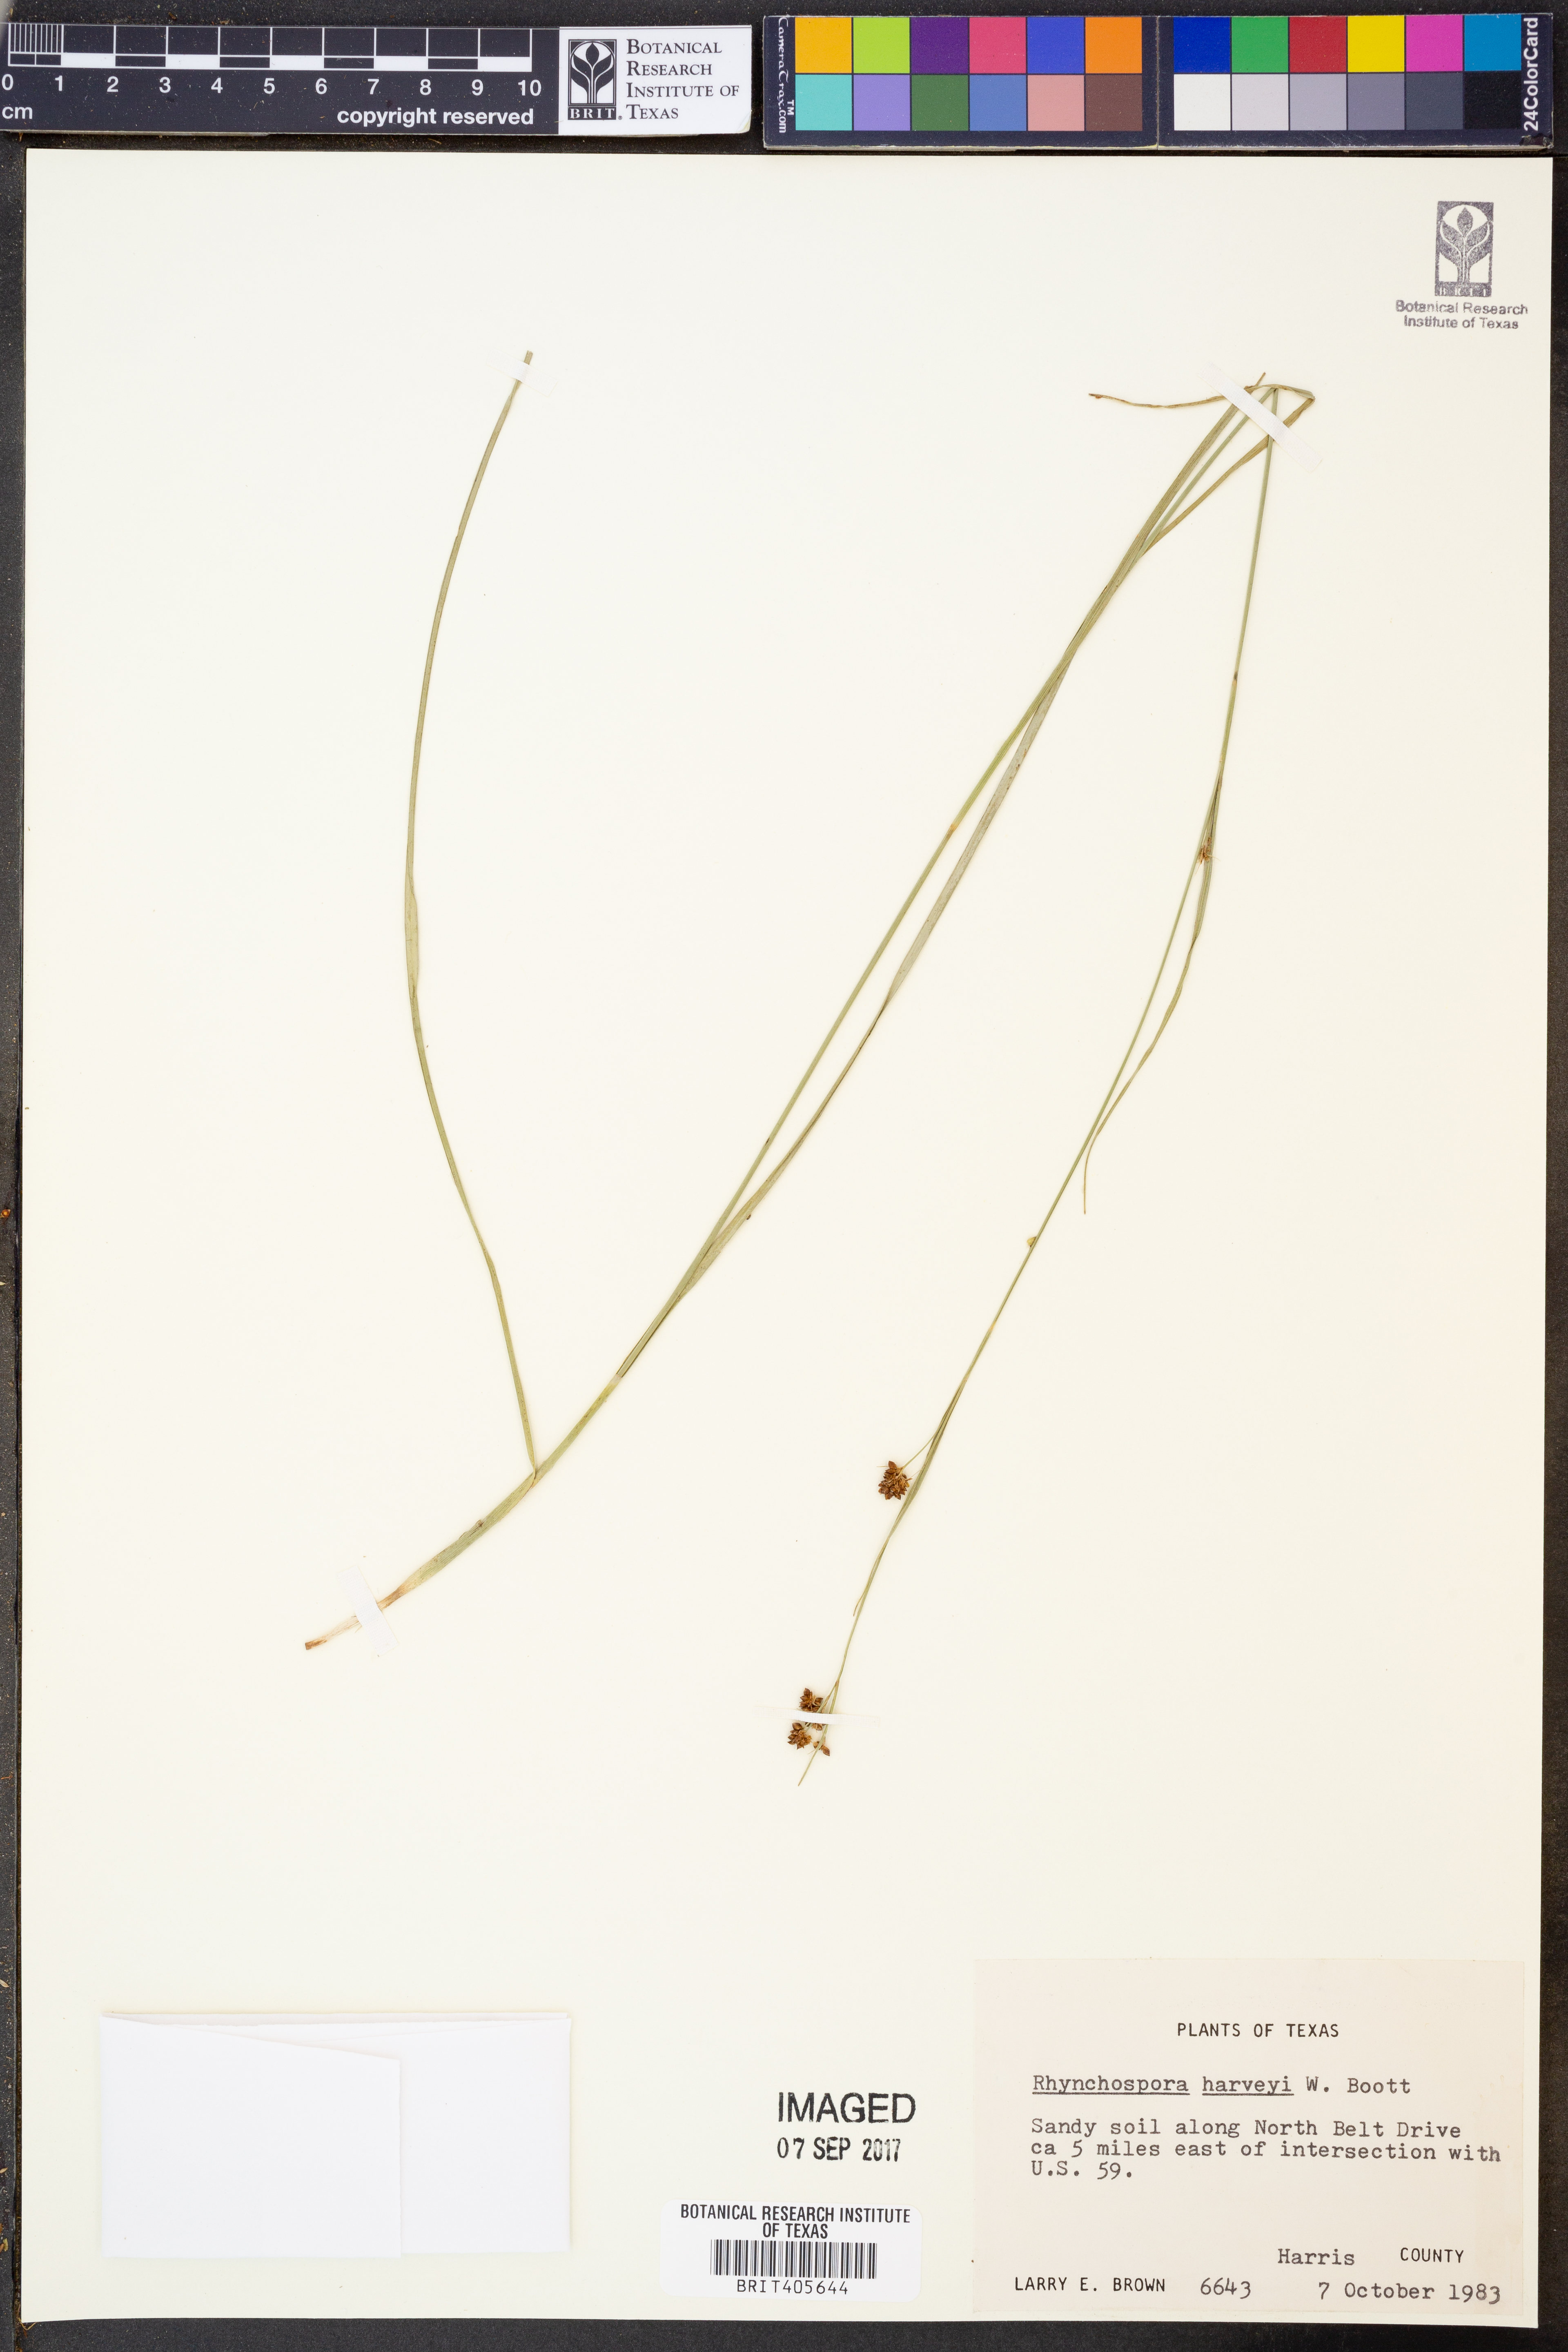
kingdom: Plantae
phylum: Tracheophyta
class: Liliopsida
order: Poales
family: Cyperaceae
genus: Rhynchospora
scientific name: Rhynchospora harveyi
